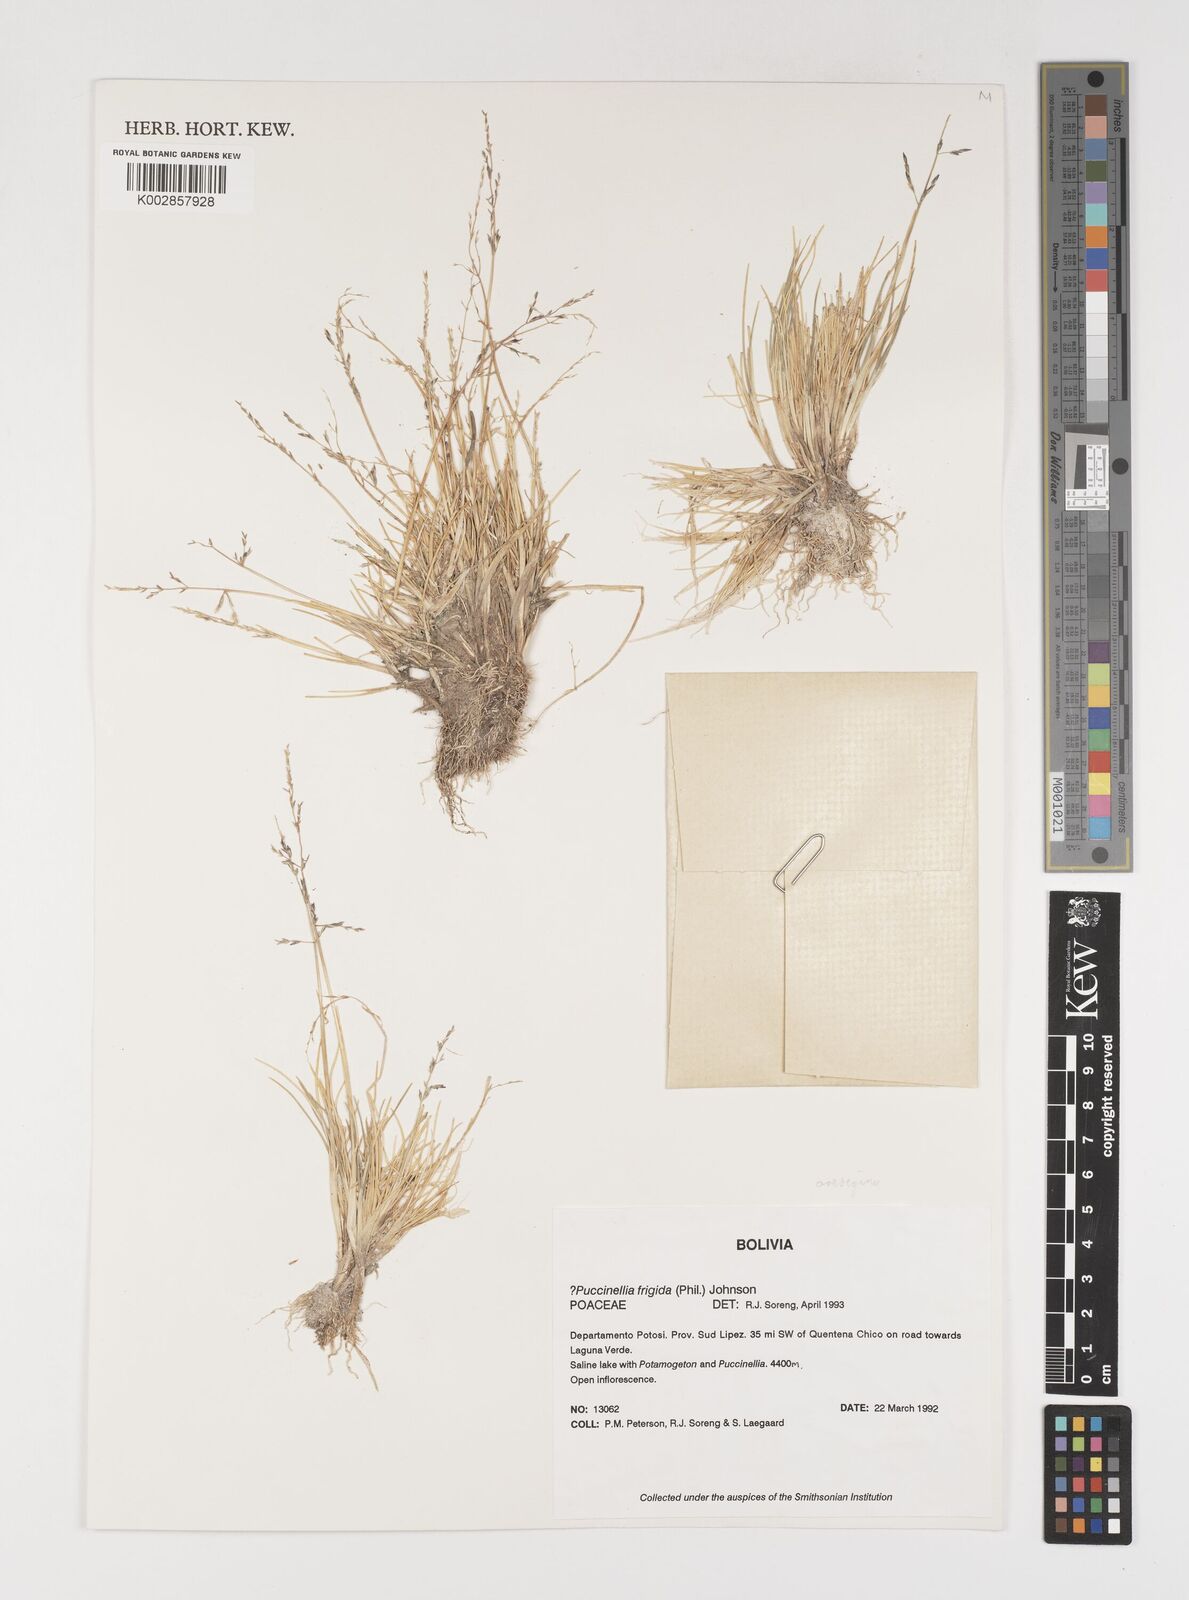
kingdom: Plantae
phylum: Tracheophyta
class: Liliopsida
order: Poales
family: Poaceae
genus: Puccinellia
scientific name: Puccinellia frigida
